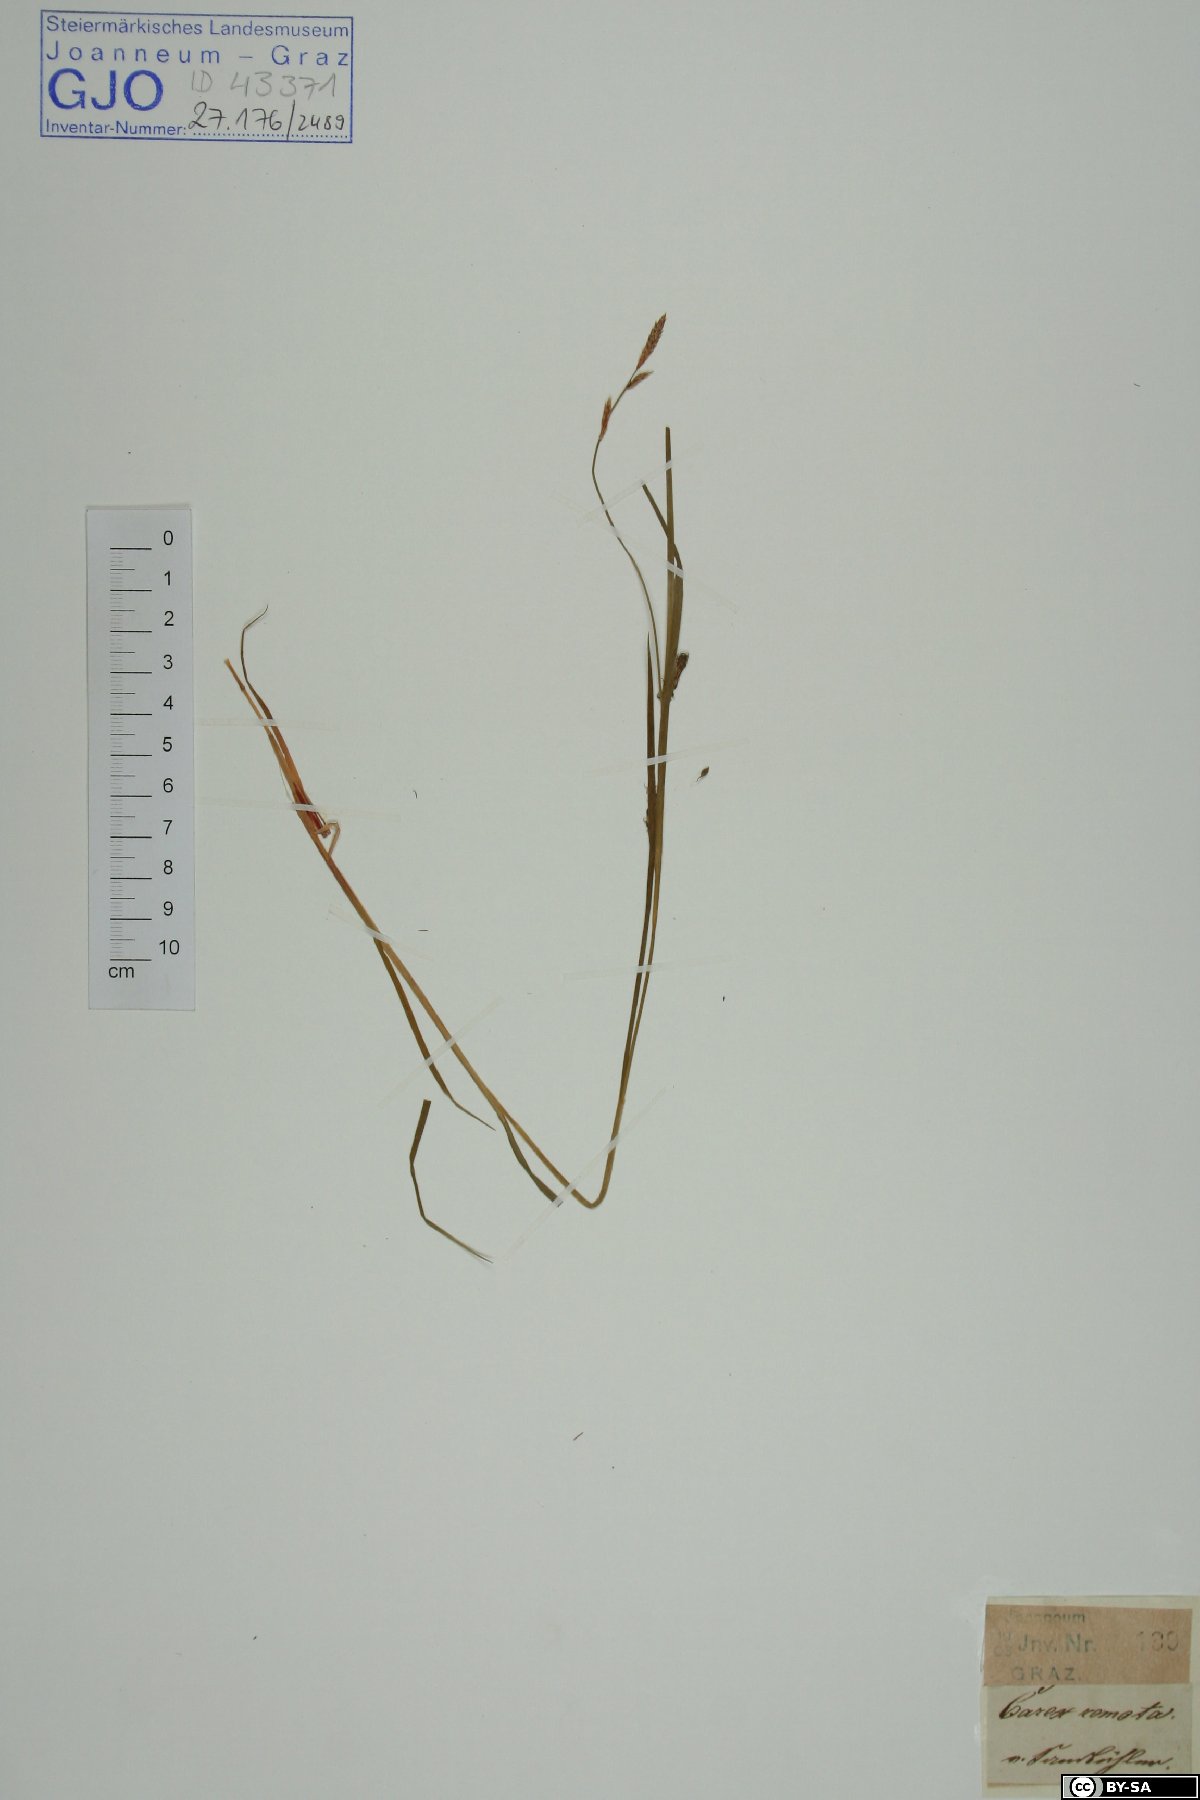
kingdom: Plantae
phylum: Tracheophyta
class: Liliopsida
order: Poales
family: Cyperaceae
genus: Carex
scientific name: Carex remota
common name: Remote sedge
